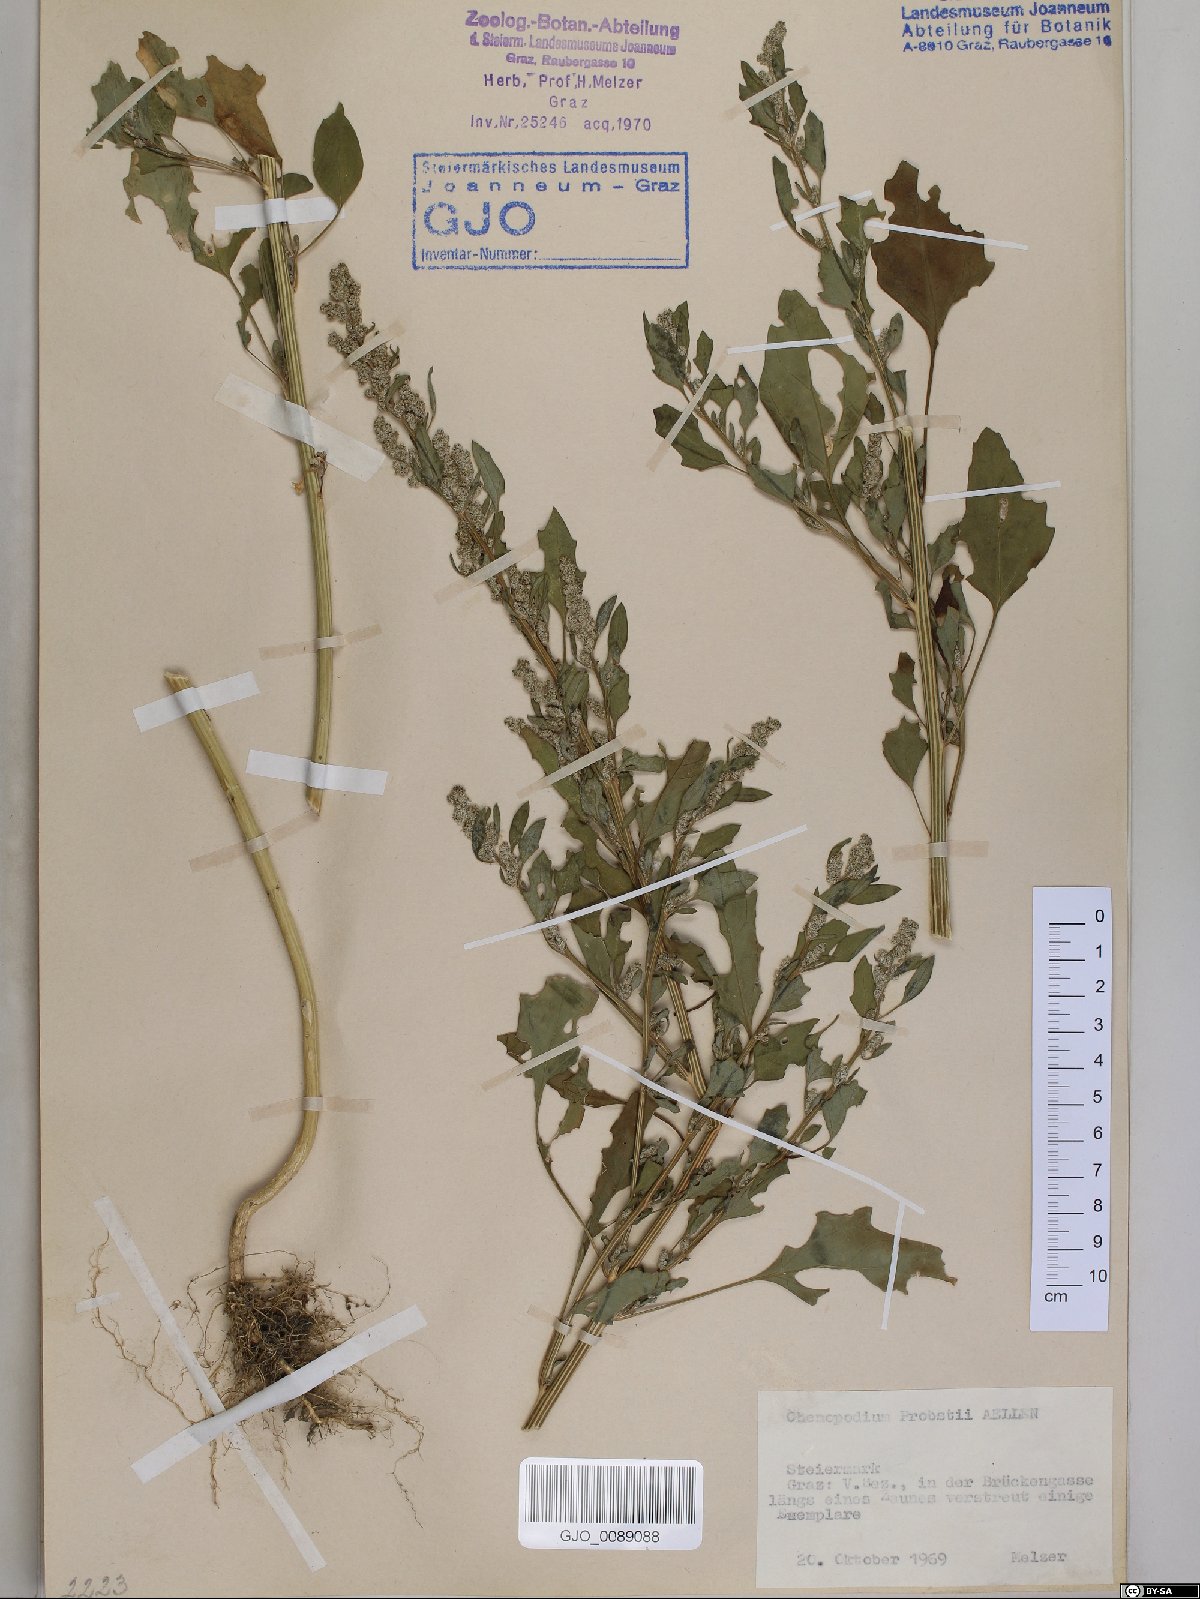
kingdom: Plantae
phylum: Tracheophyta
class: Magnoliopsida
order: Caryophyllales
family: Amaranthaceae
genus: Chenopodium
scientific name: Chenopodium probstii
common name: Probst's goosefoot
